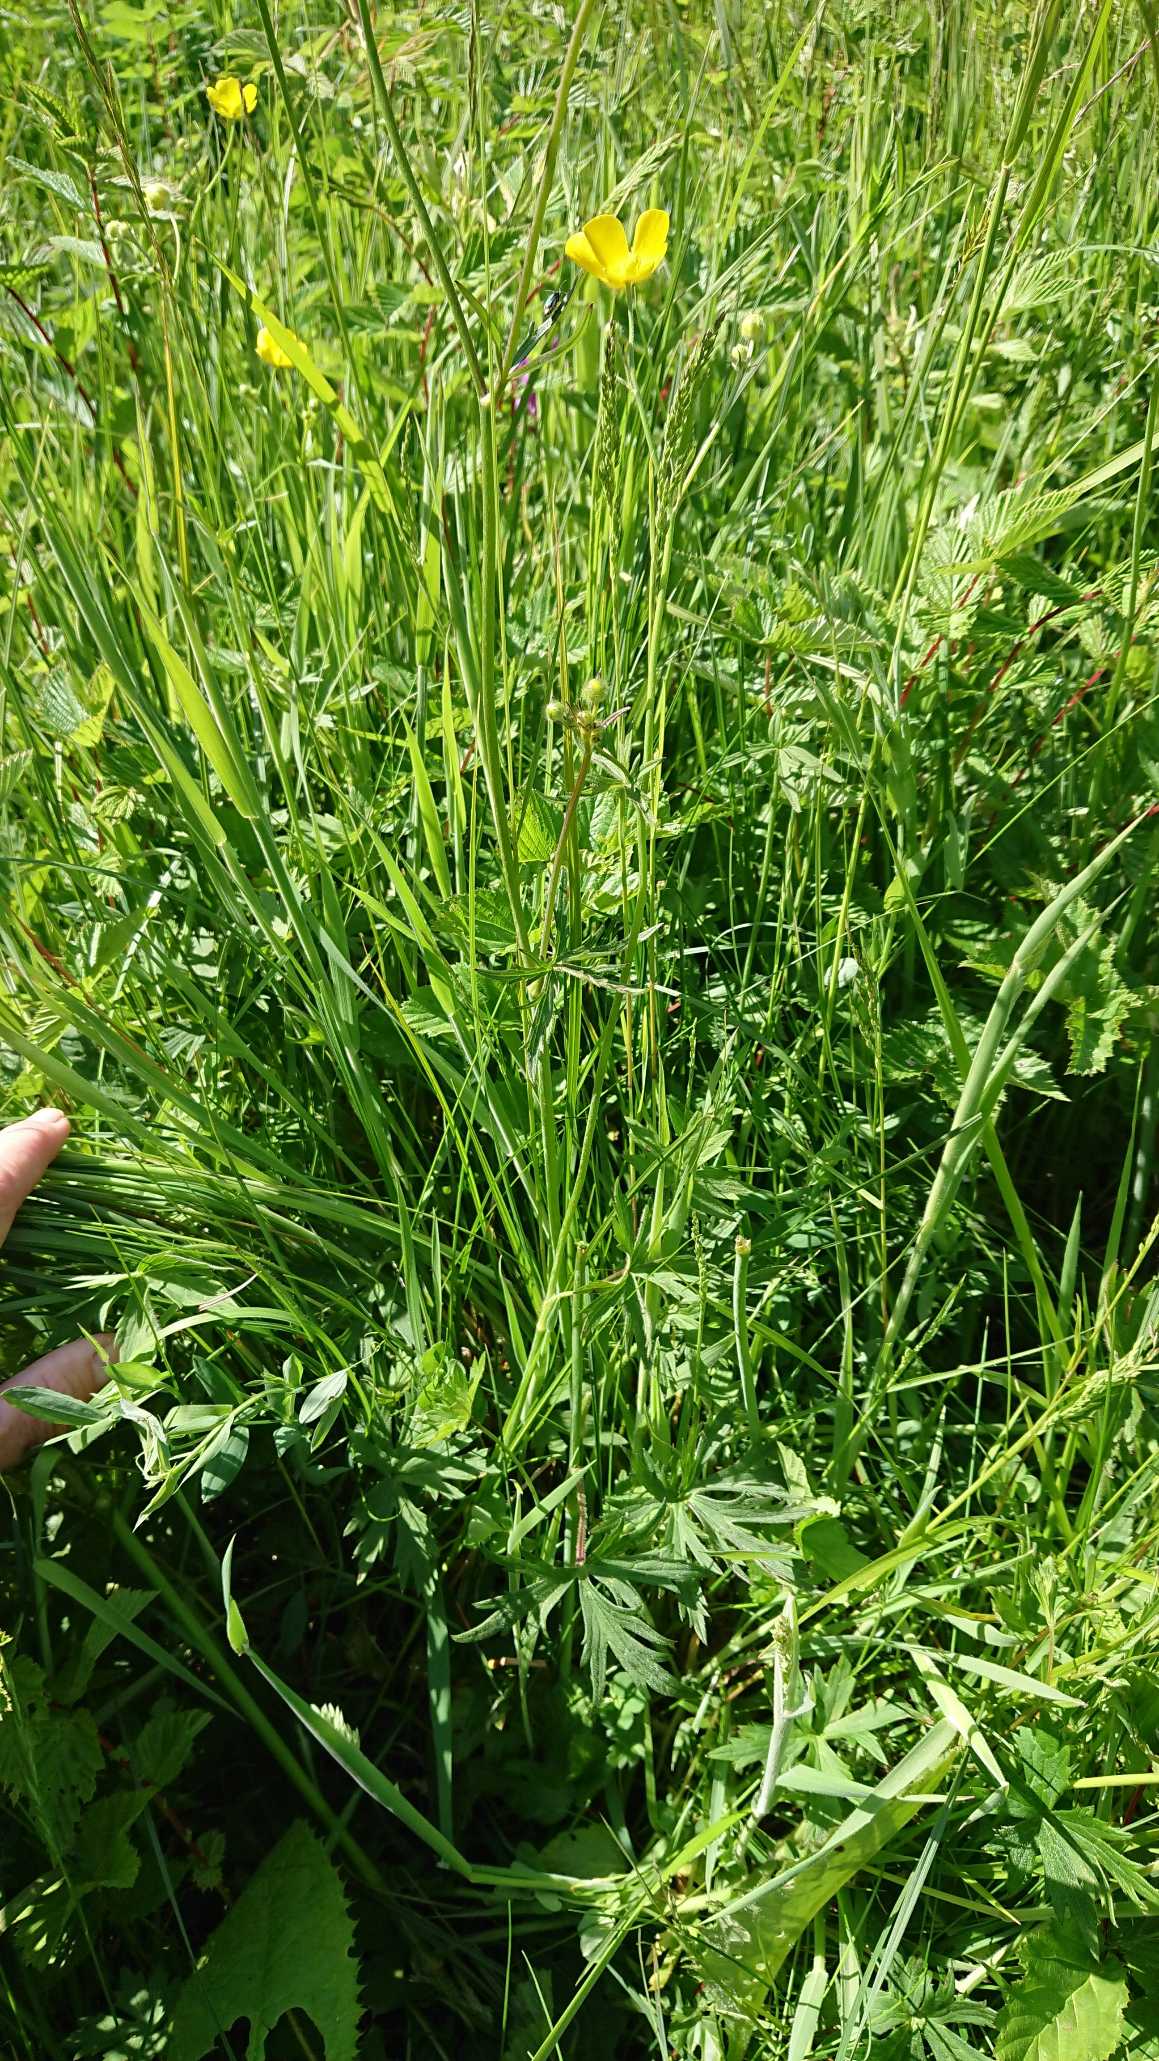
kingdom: Plantae
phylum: Tracheophyta
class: Magnoliopsida
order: Ranunculales
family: Ranunculaceae
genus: Ranunculus
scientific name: Ranunculus acris
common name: Bidende ranunkel
